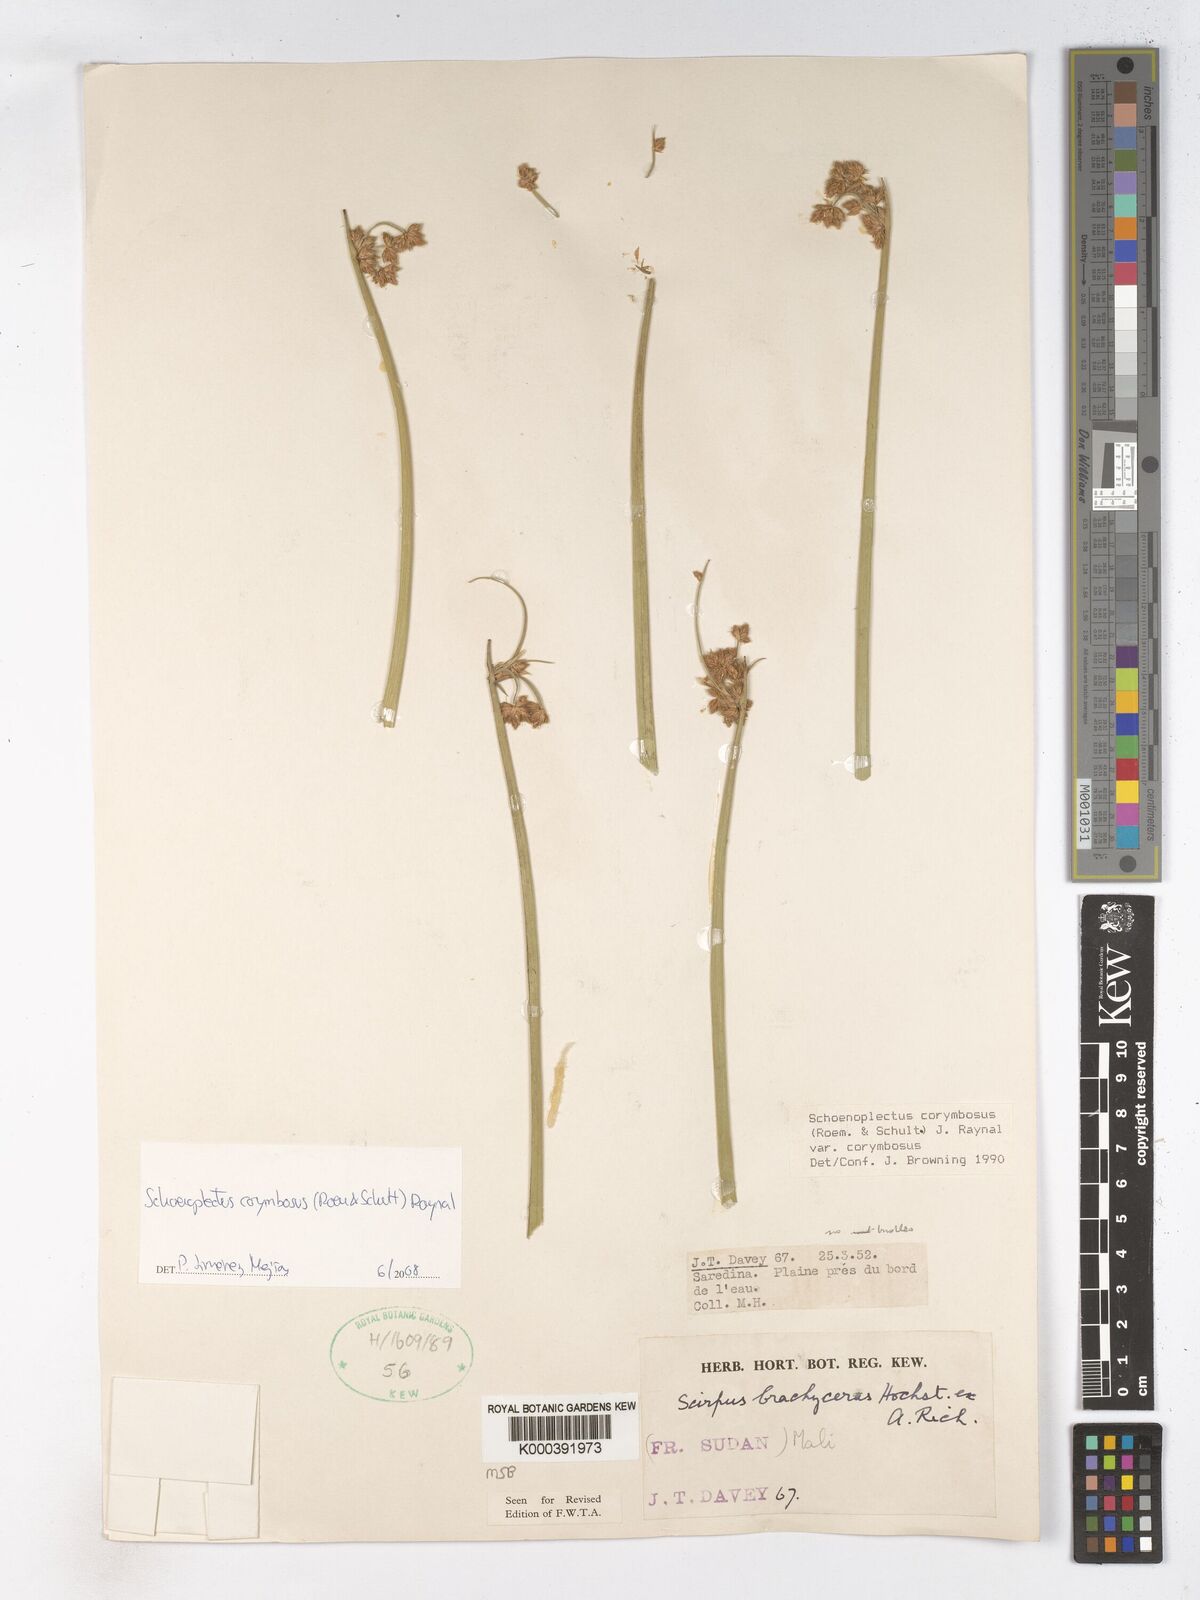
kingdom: Plantae
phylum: Tracheophyta
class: Liliopsida
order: Poales
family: Cyperaceae
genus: Schoenoplectiella
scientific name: Schoenoplectiella brachyceras
